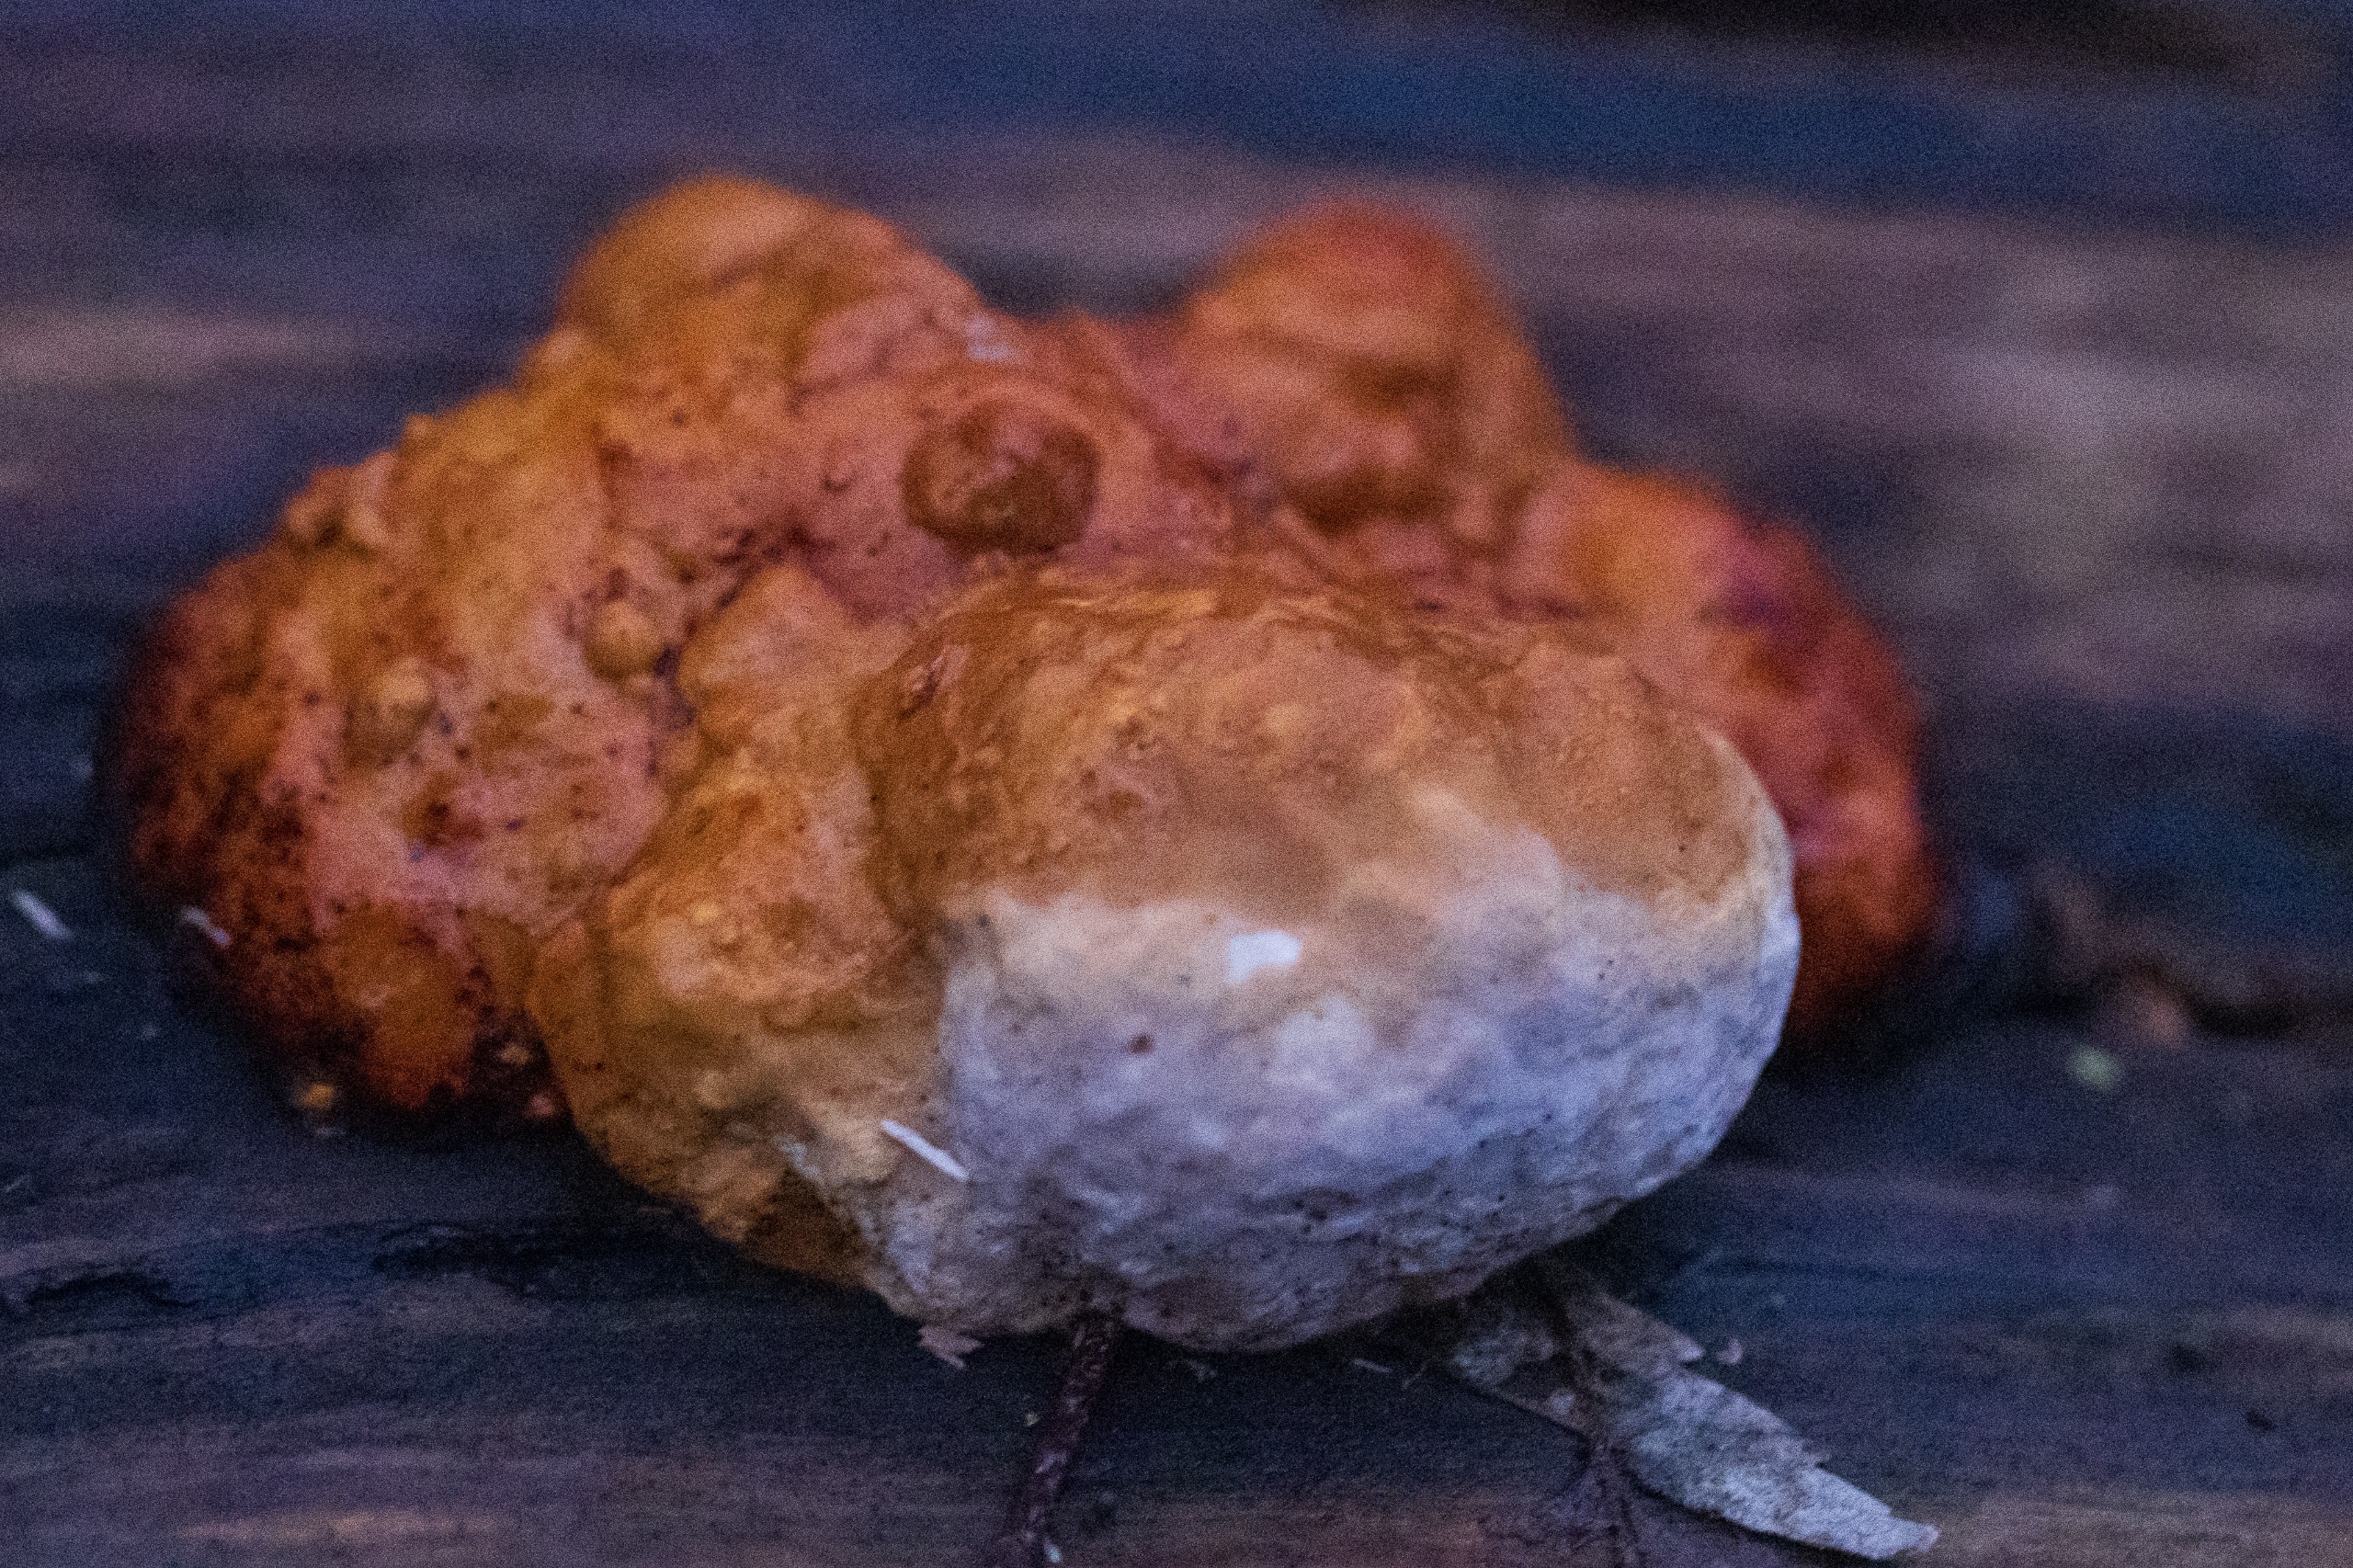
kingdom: Fungi
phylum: Basidiomycota
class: Agaricomycetes
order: Polyporales
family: Fomitopsidaceae
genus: Fomitopsis
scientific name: Fomitopsis pinicola
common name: Randbæltet hovporesvamp
